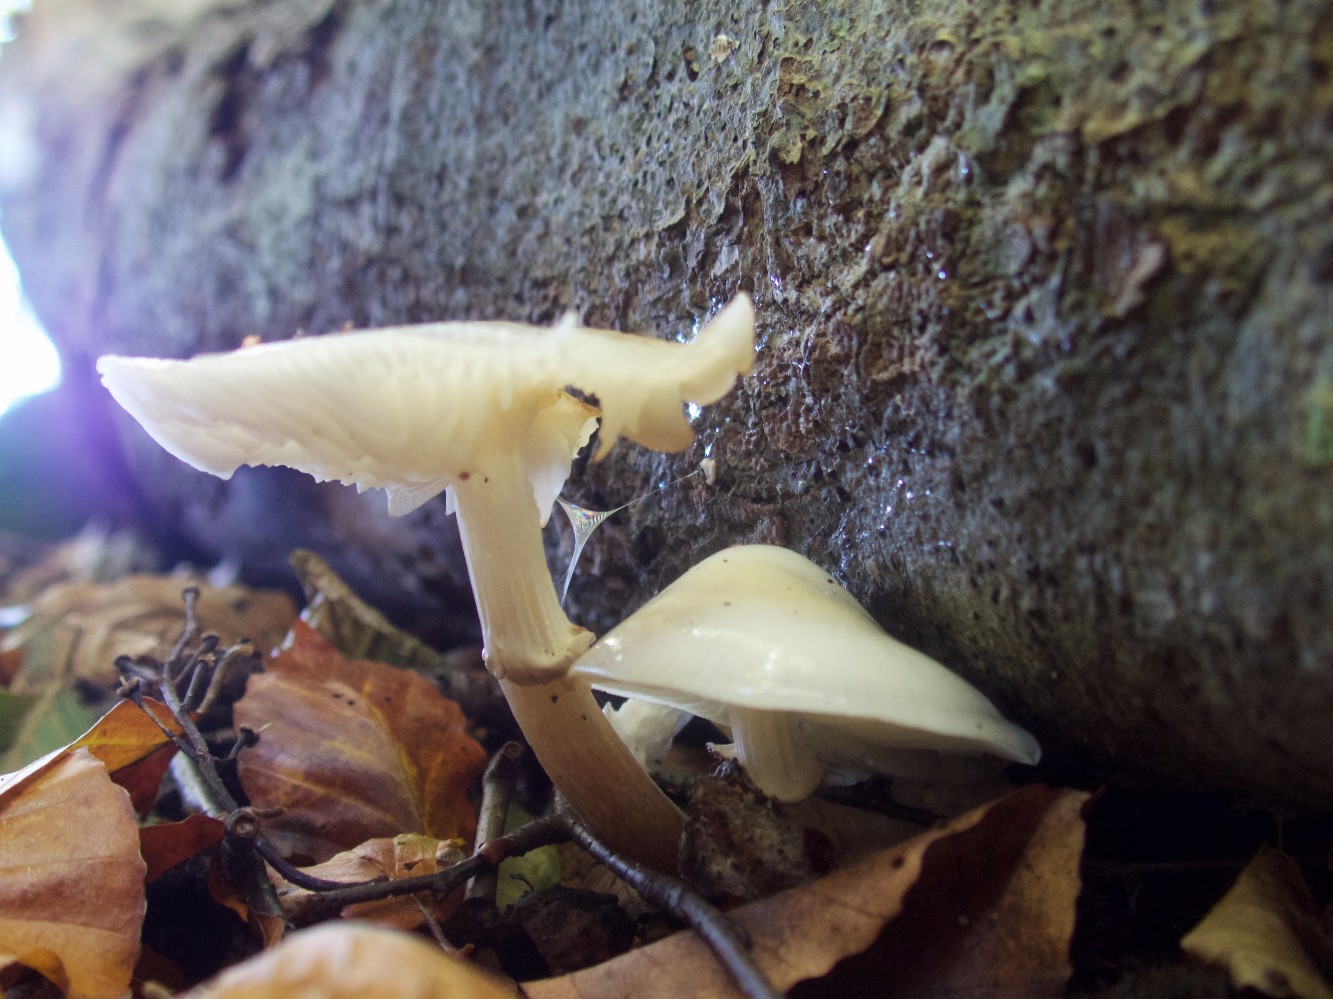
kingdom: Fungi
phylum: Basidiomycota
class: Agaricomycetes
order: Agaricales
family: Physalacriaceae
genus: Mucidula
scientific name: Mucidula mucida
